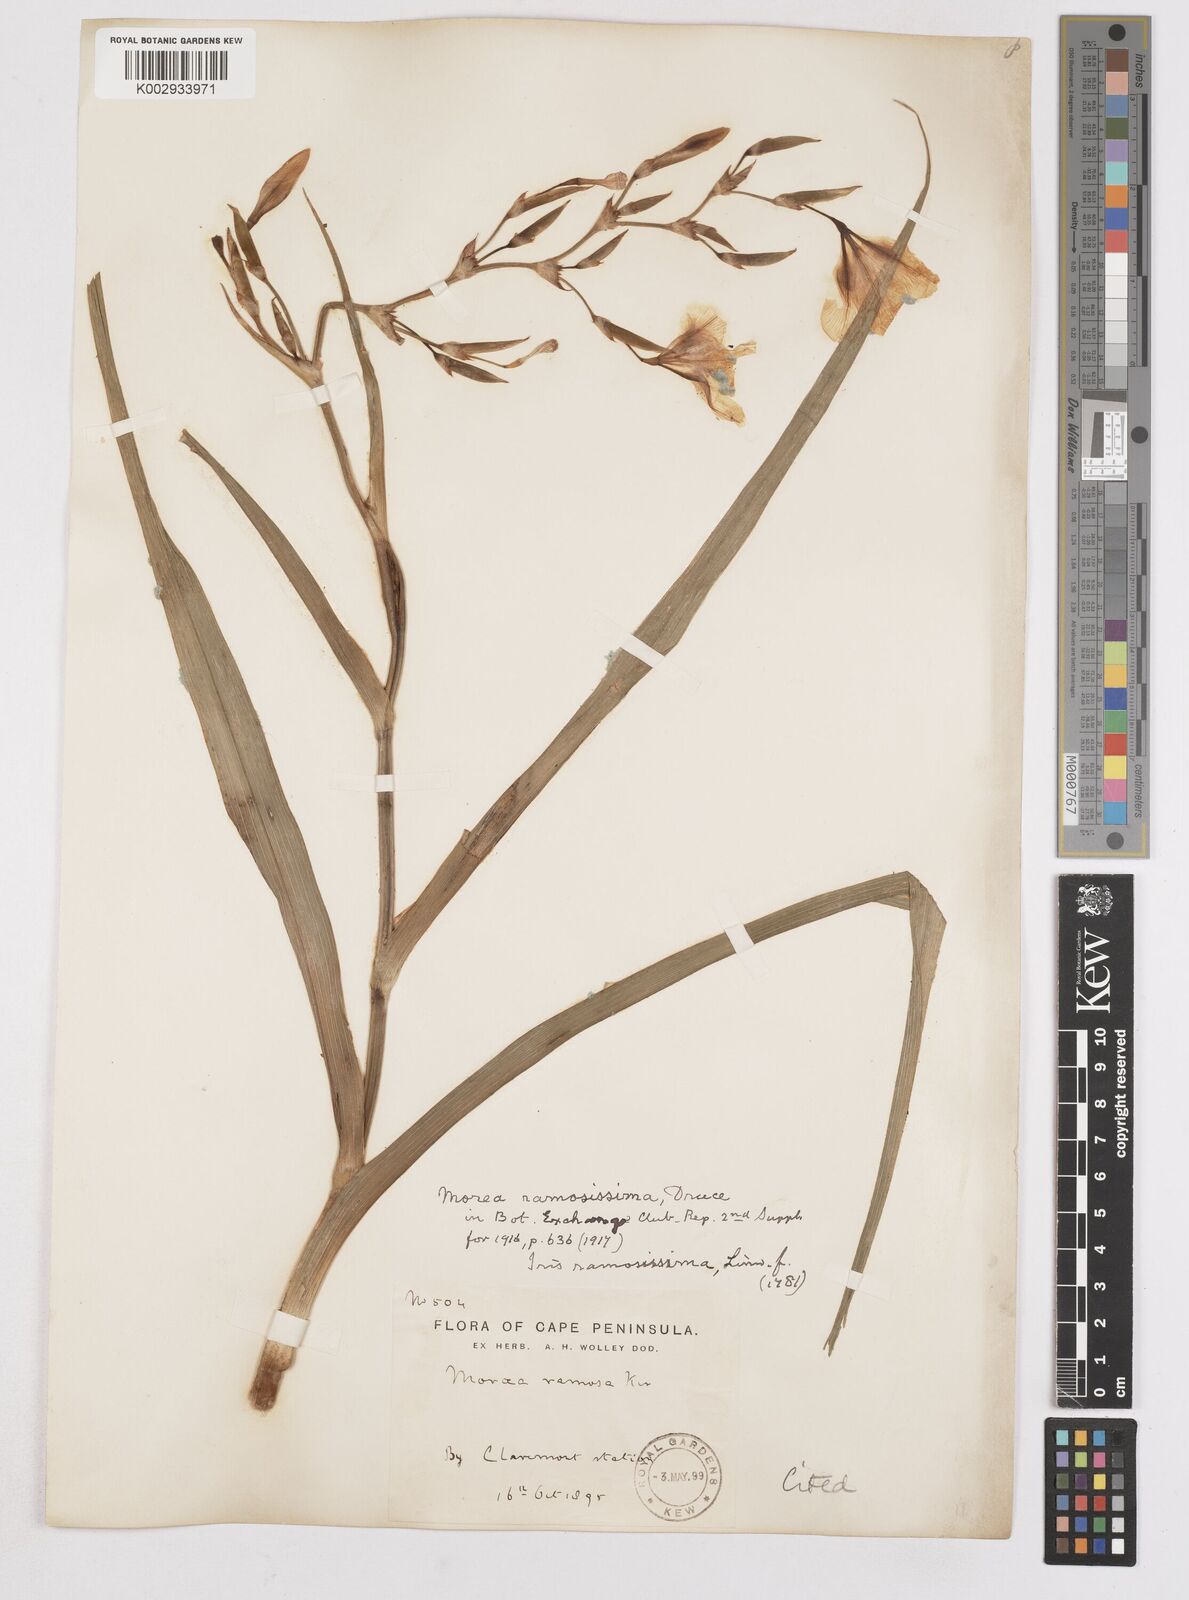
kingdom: Plantae
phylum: Tracheophyta
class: Liliopsida
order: Asparagales
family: Iridaceae
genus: Moraea
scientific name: Moraea ramosissima
